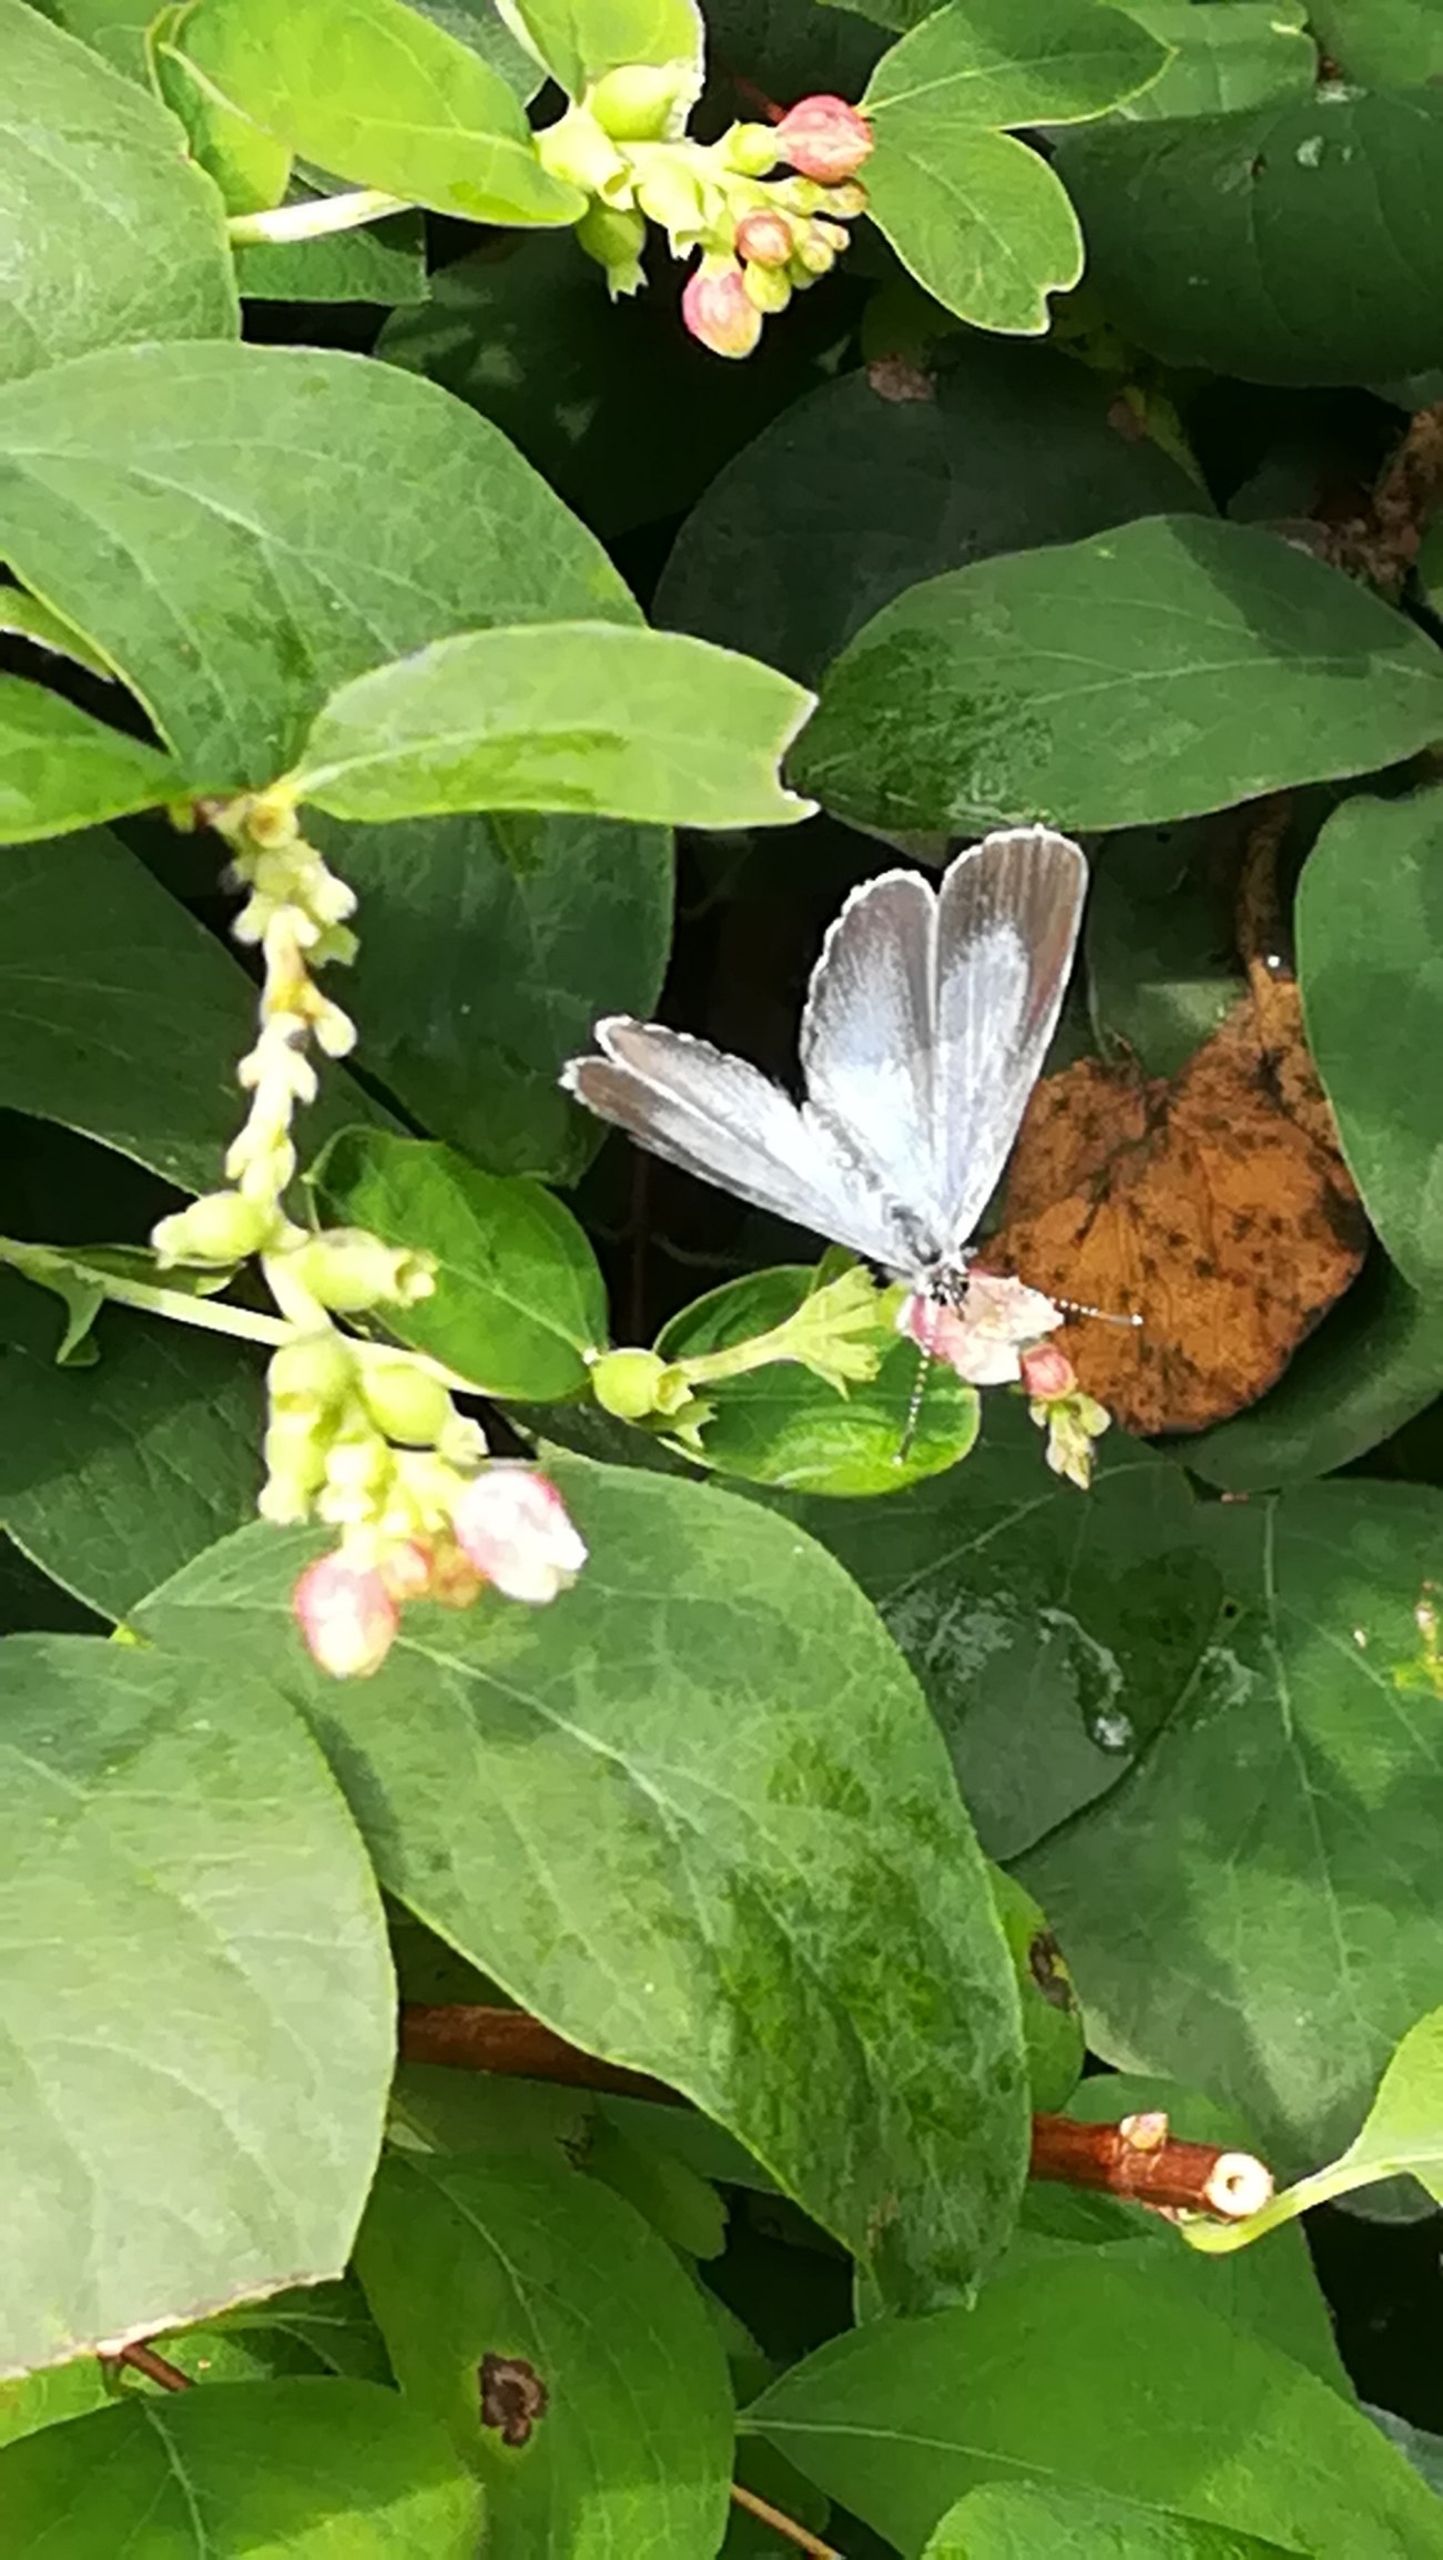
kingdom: Animalia
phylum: Arthropoda
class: Insecta
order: Lepidoptera
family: Lycaenidae
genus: Celastrina
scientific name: Celastrina argiolus
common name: Skovblåfugl
